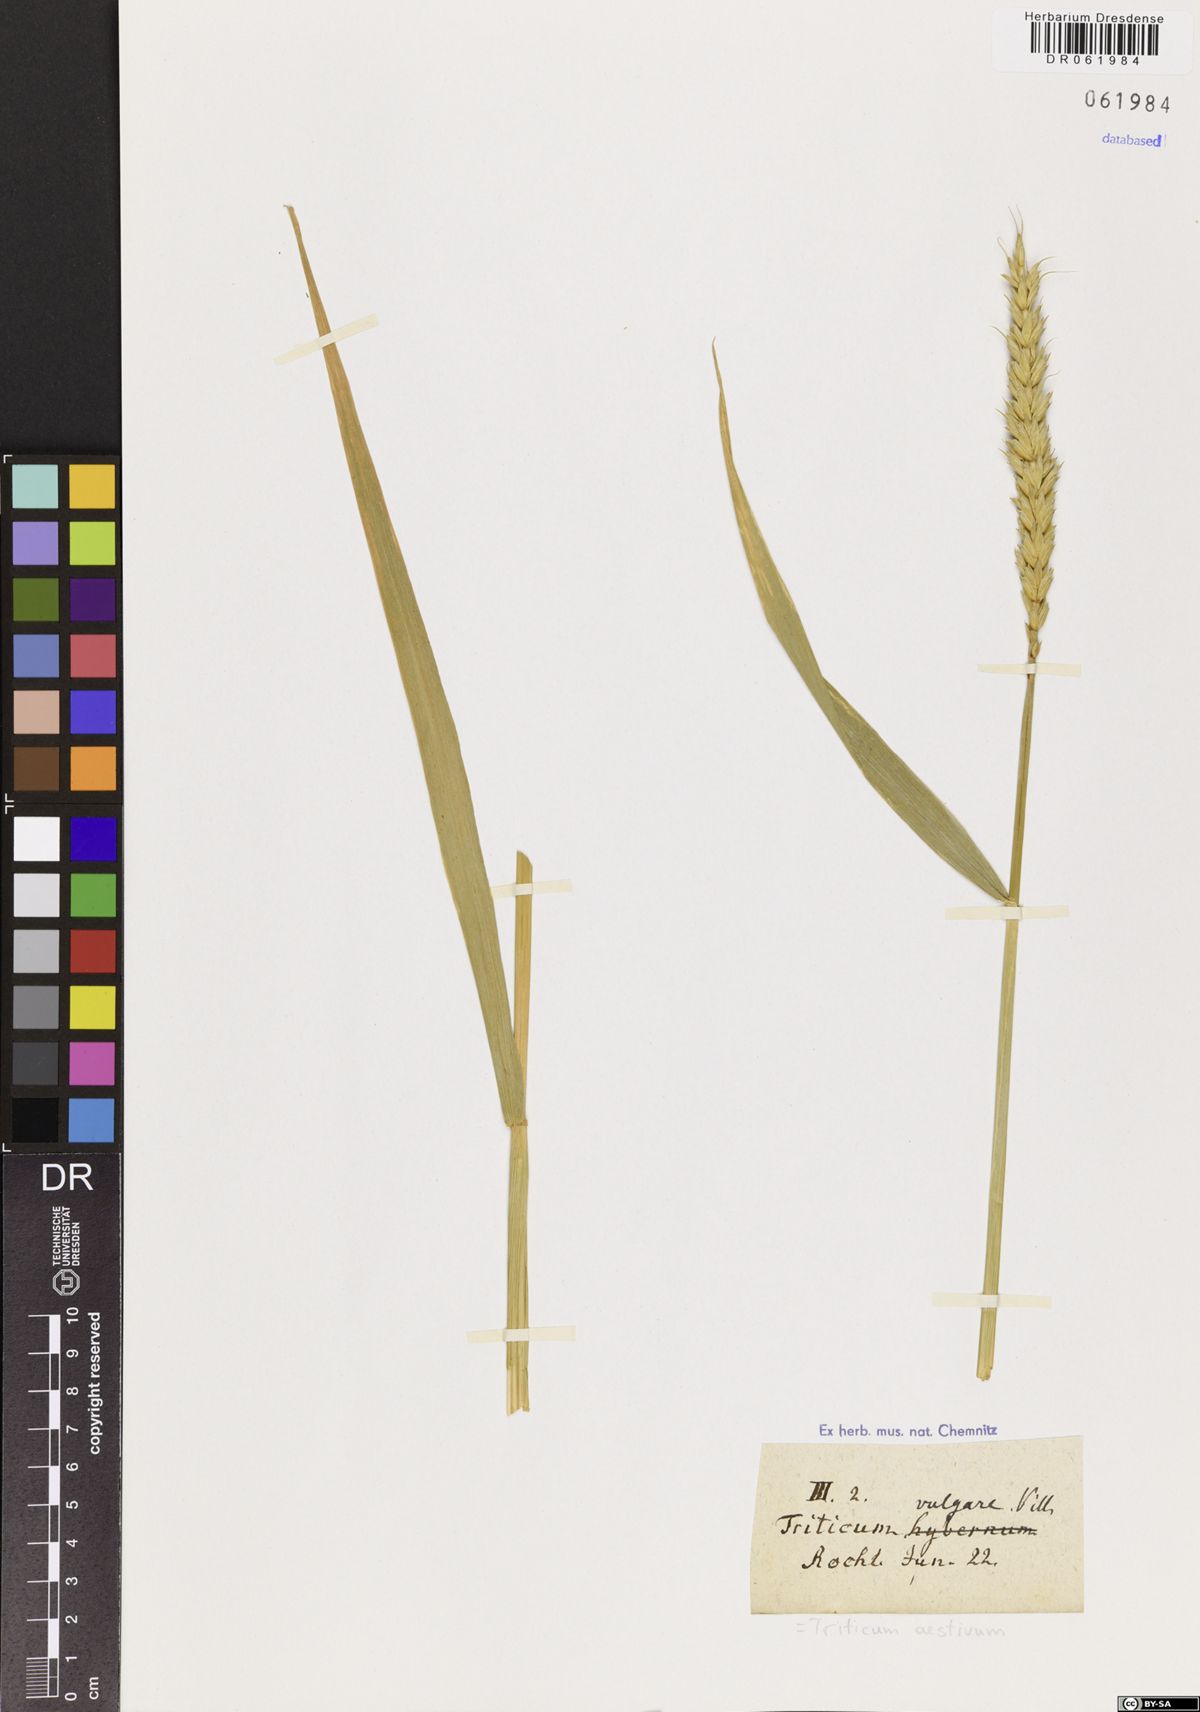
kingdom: Plantae
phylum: Tracheophyta
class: Liliopsida
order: Poales
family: Poaceae
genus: Triticum
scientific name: Triticum aestivum
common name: Common wheat
